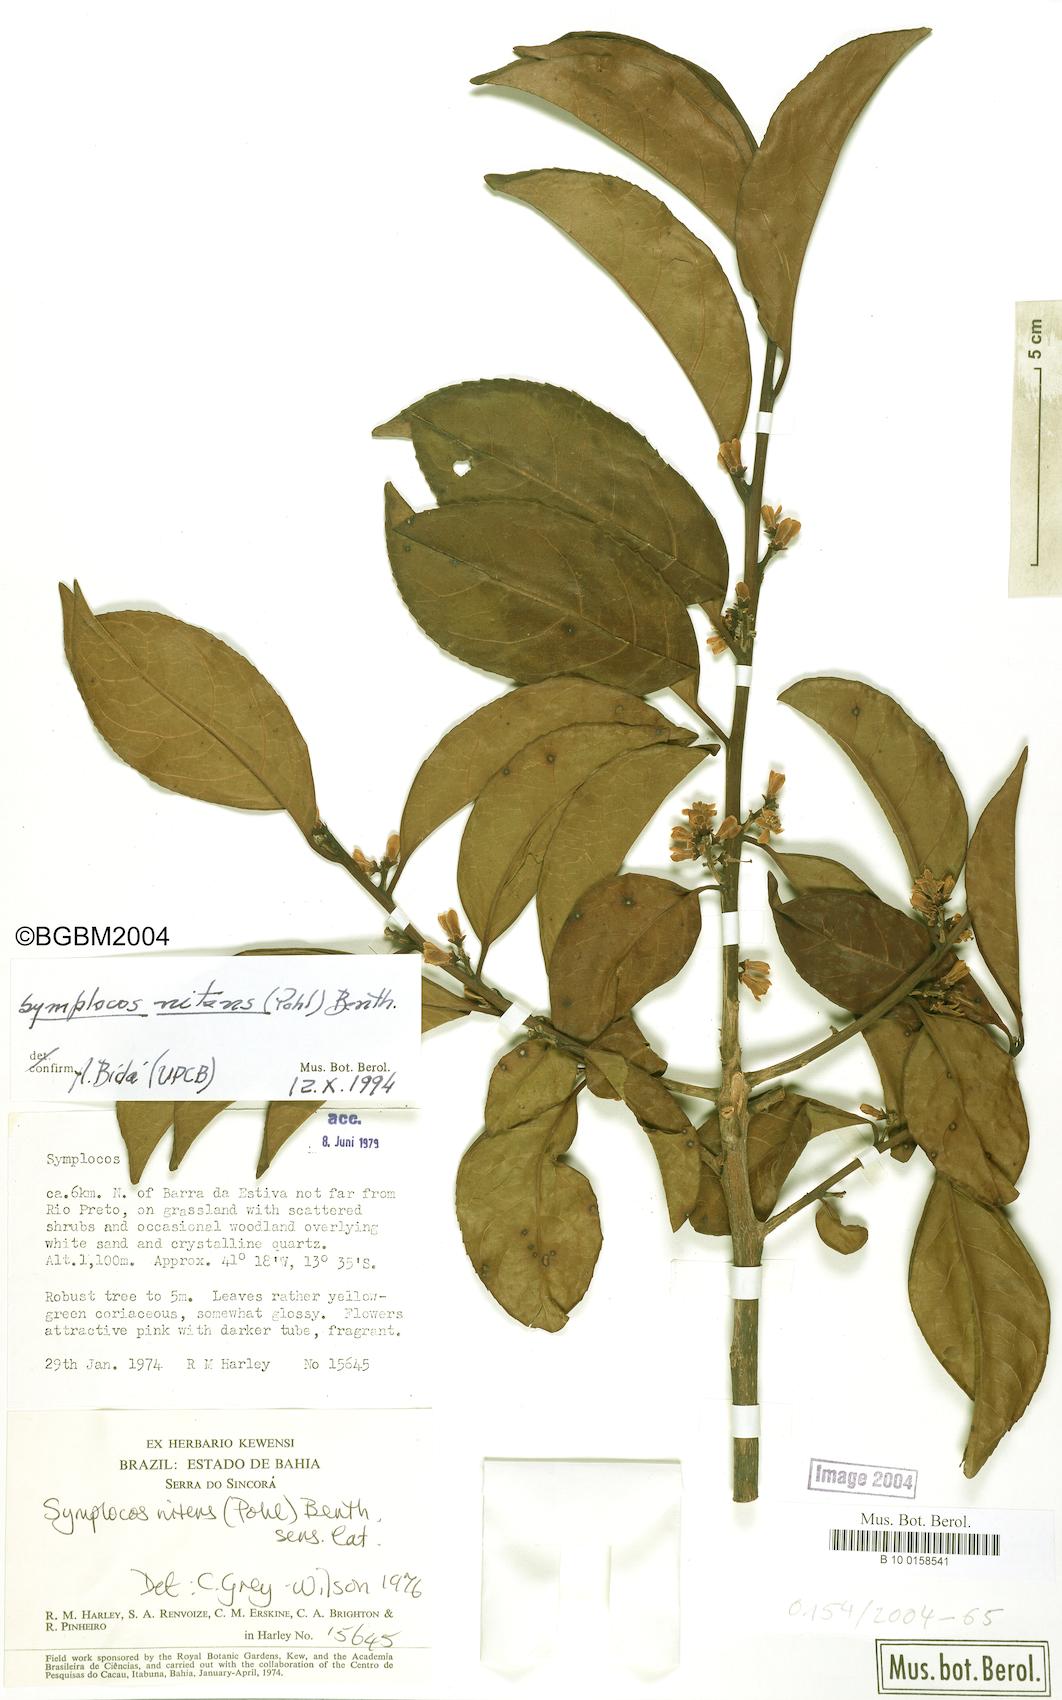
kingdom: Plantae
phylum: Tracheophyta
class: Magnoliopsida
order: Ericales
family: Symplocaceae
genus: Symplocos
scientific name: Symplocos nitens
